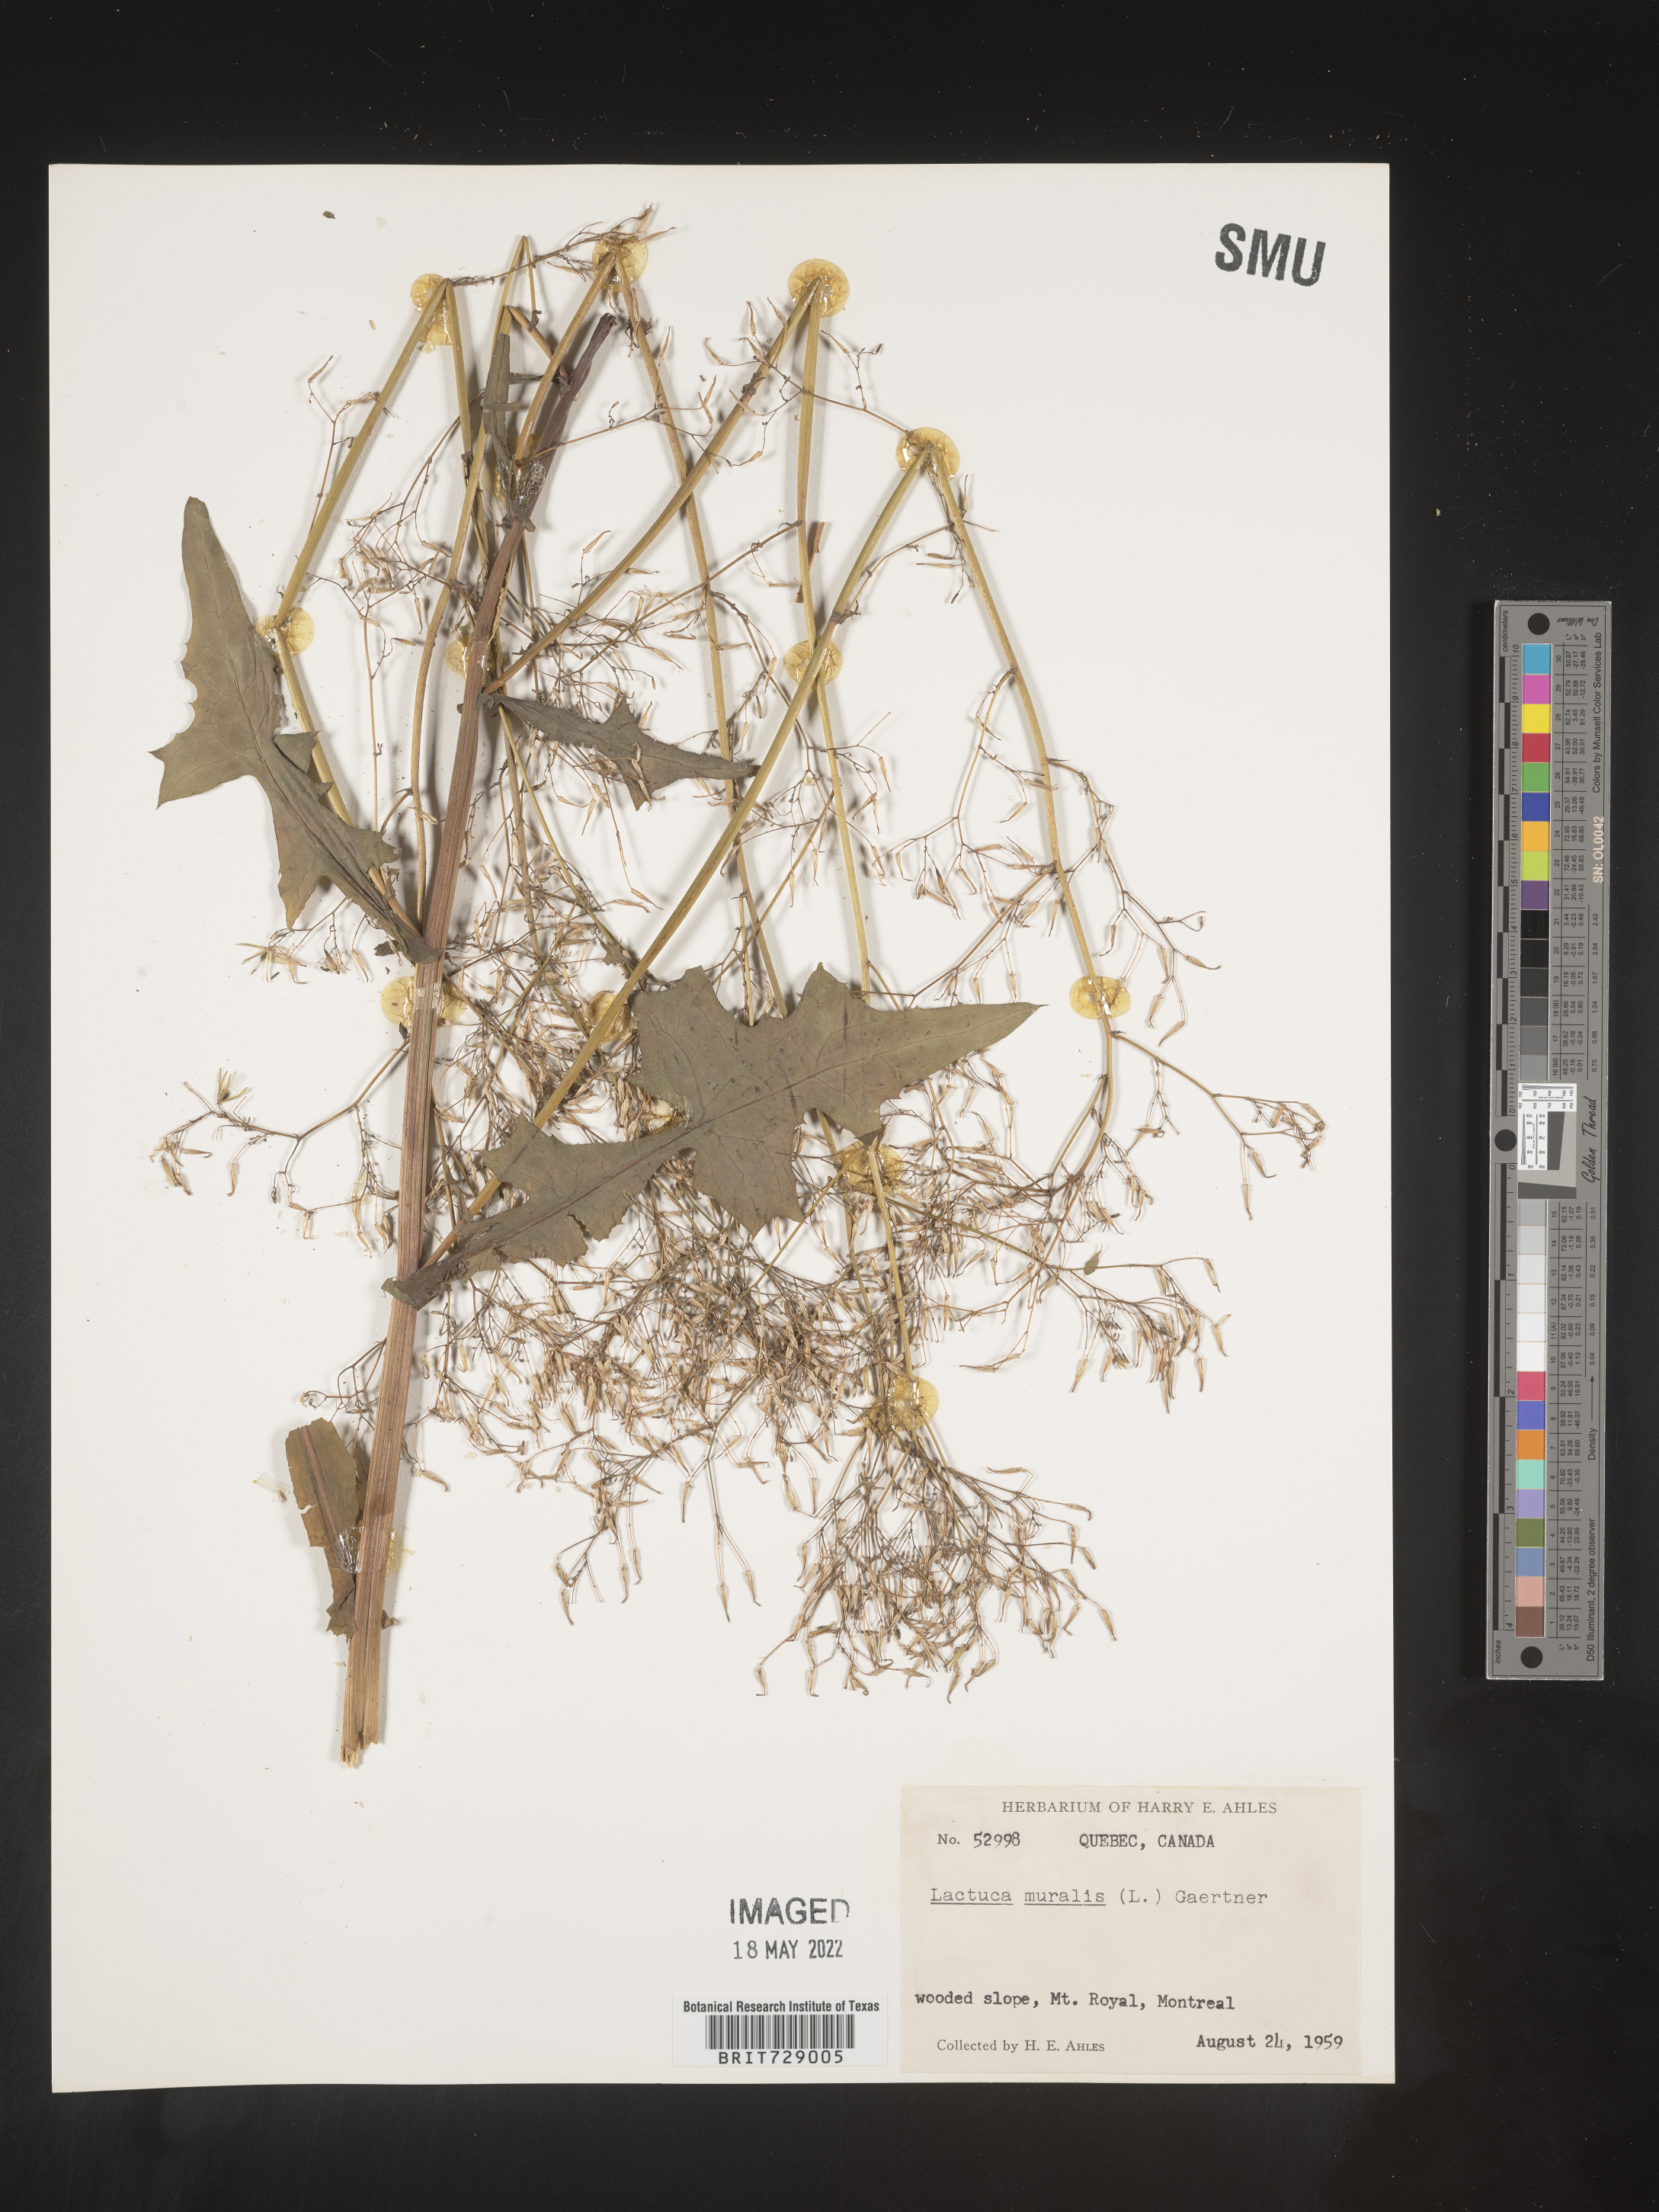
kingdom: Plantae
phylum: Tracheophyta
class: Magnoliopsida
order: Asterales
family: Asteraceae
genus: Lactuca
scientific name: Lactuca
